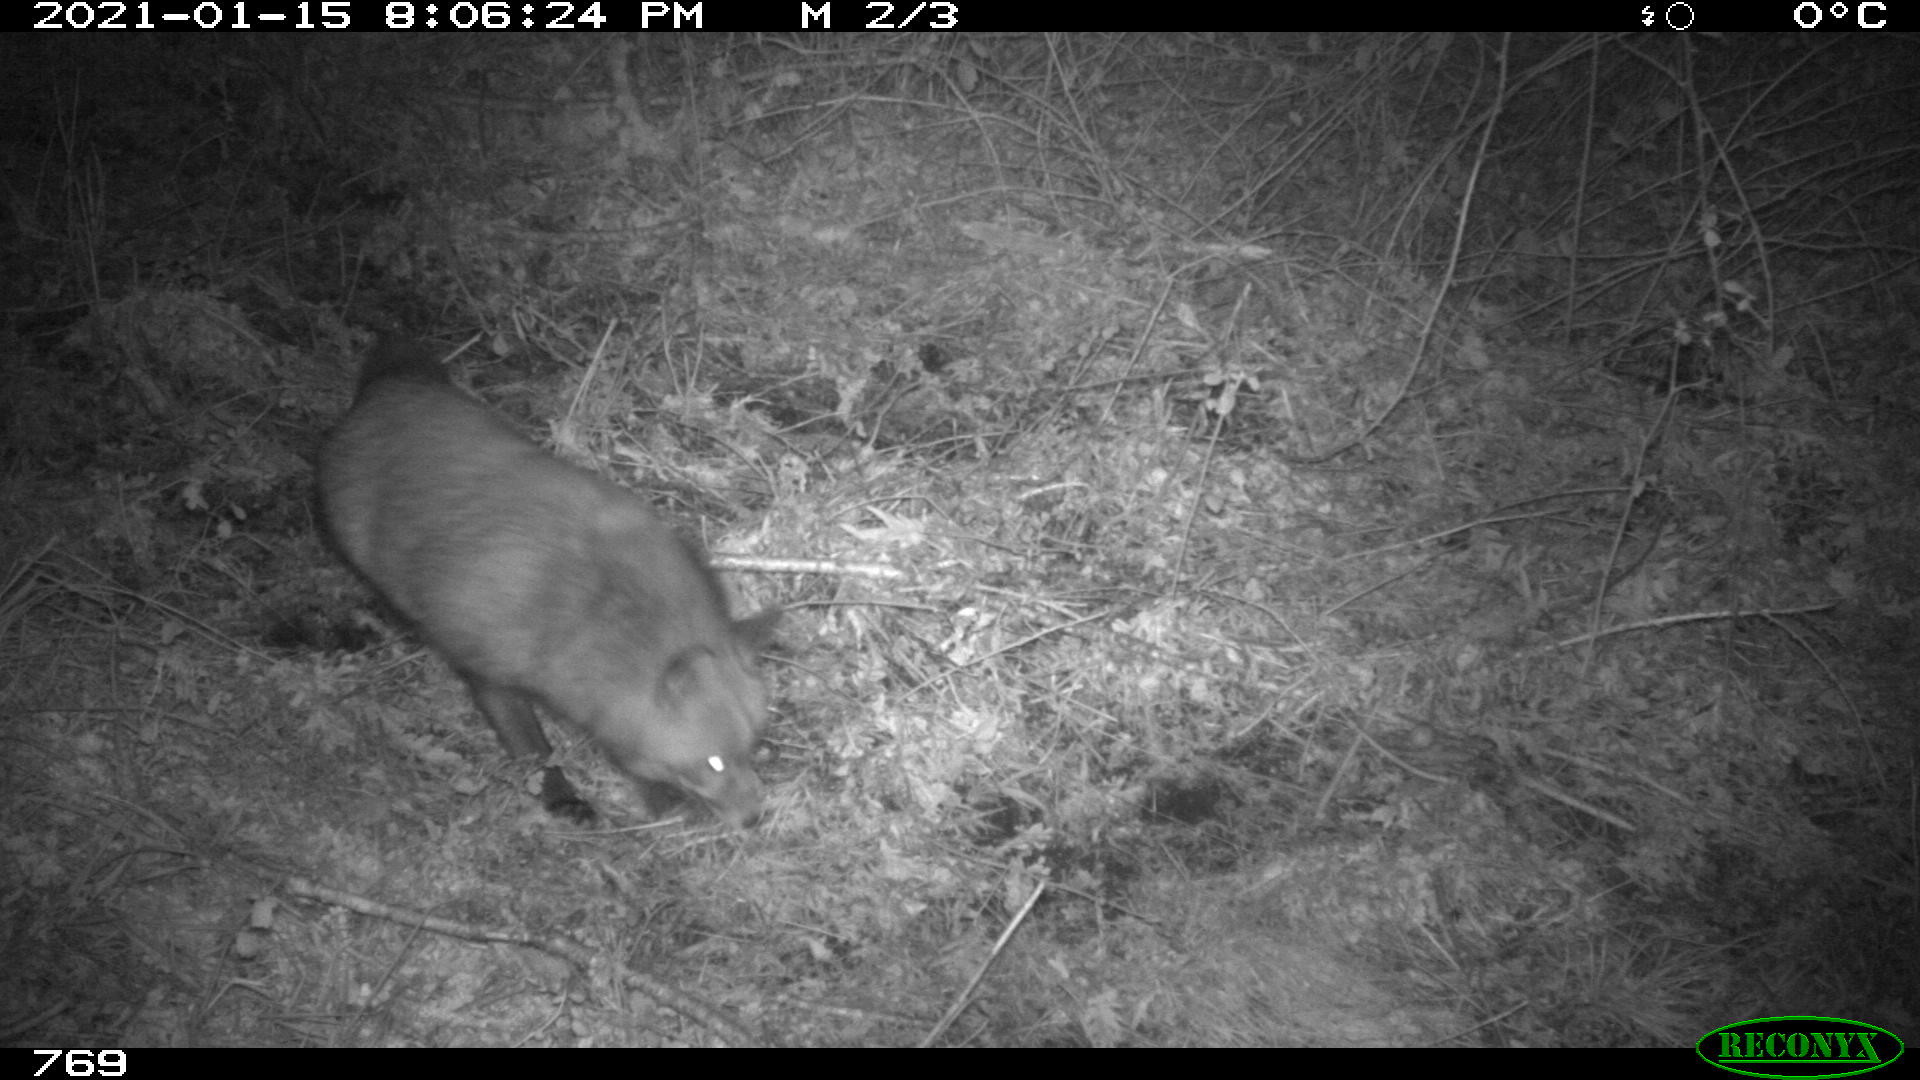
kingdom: Animalia
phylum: Chordata
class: Mammalia
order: Carnivora
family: Canidae
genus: Vulpes
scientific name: Vulpes vulpes
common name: Red fox
